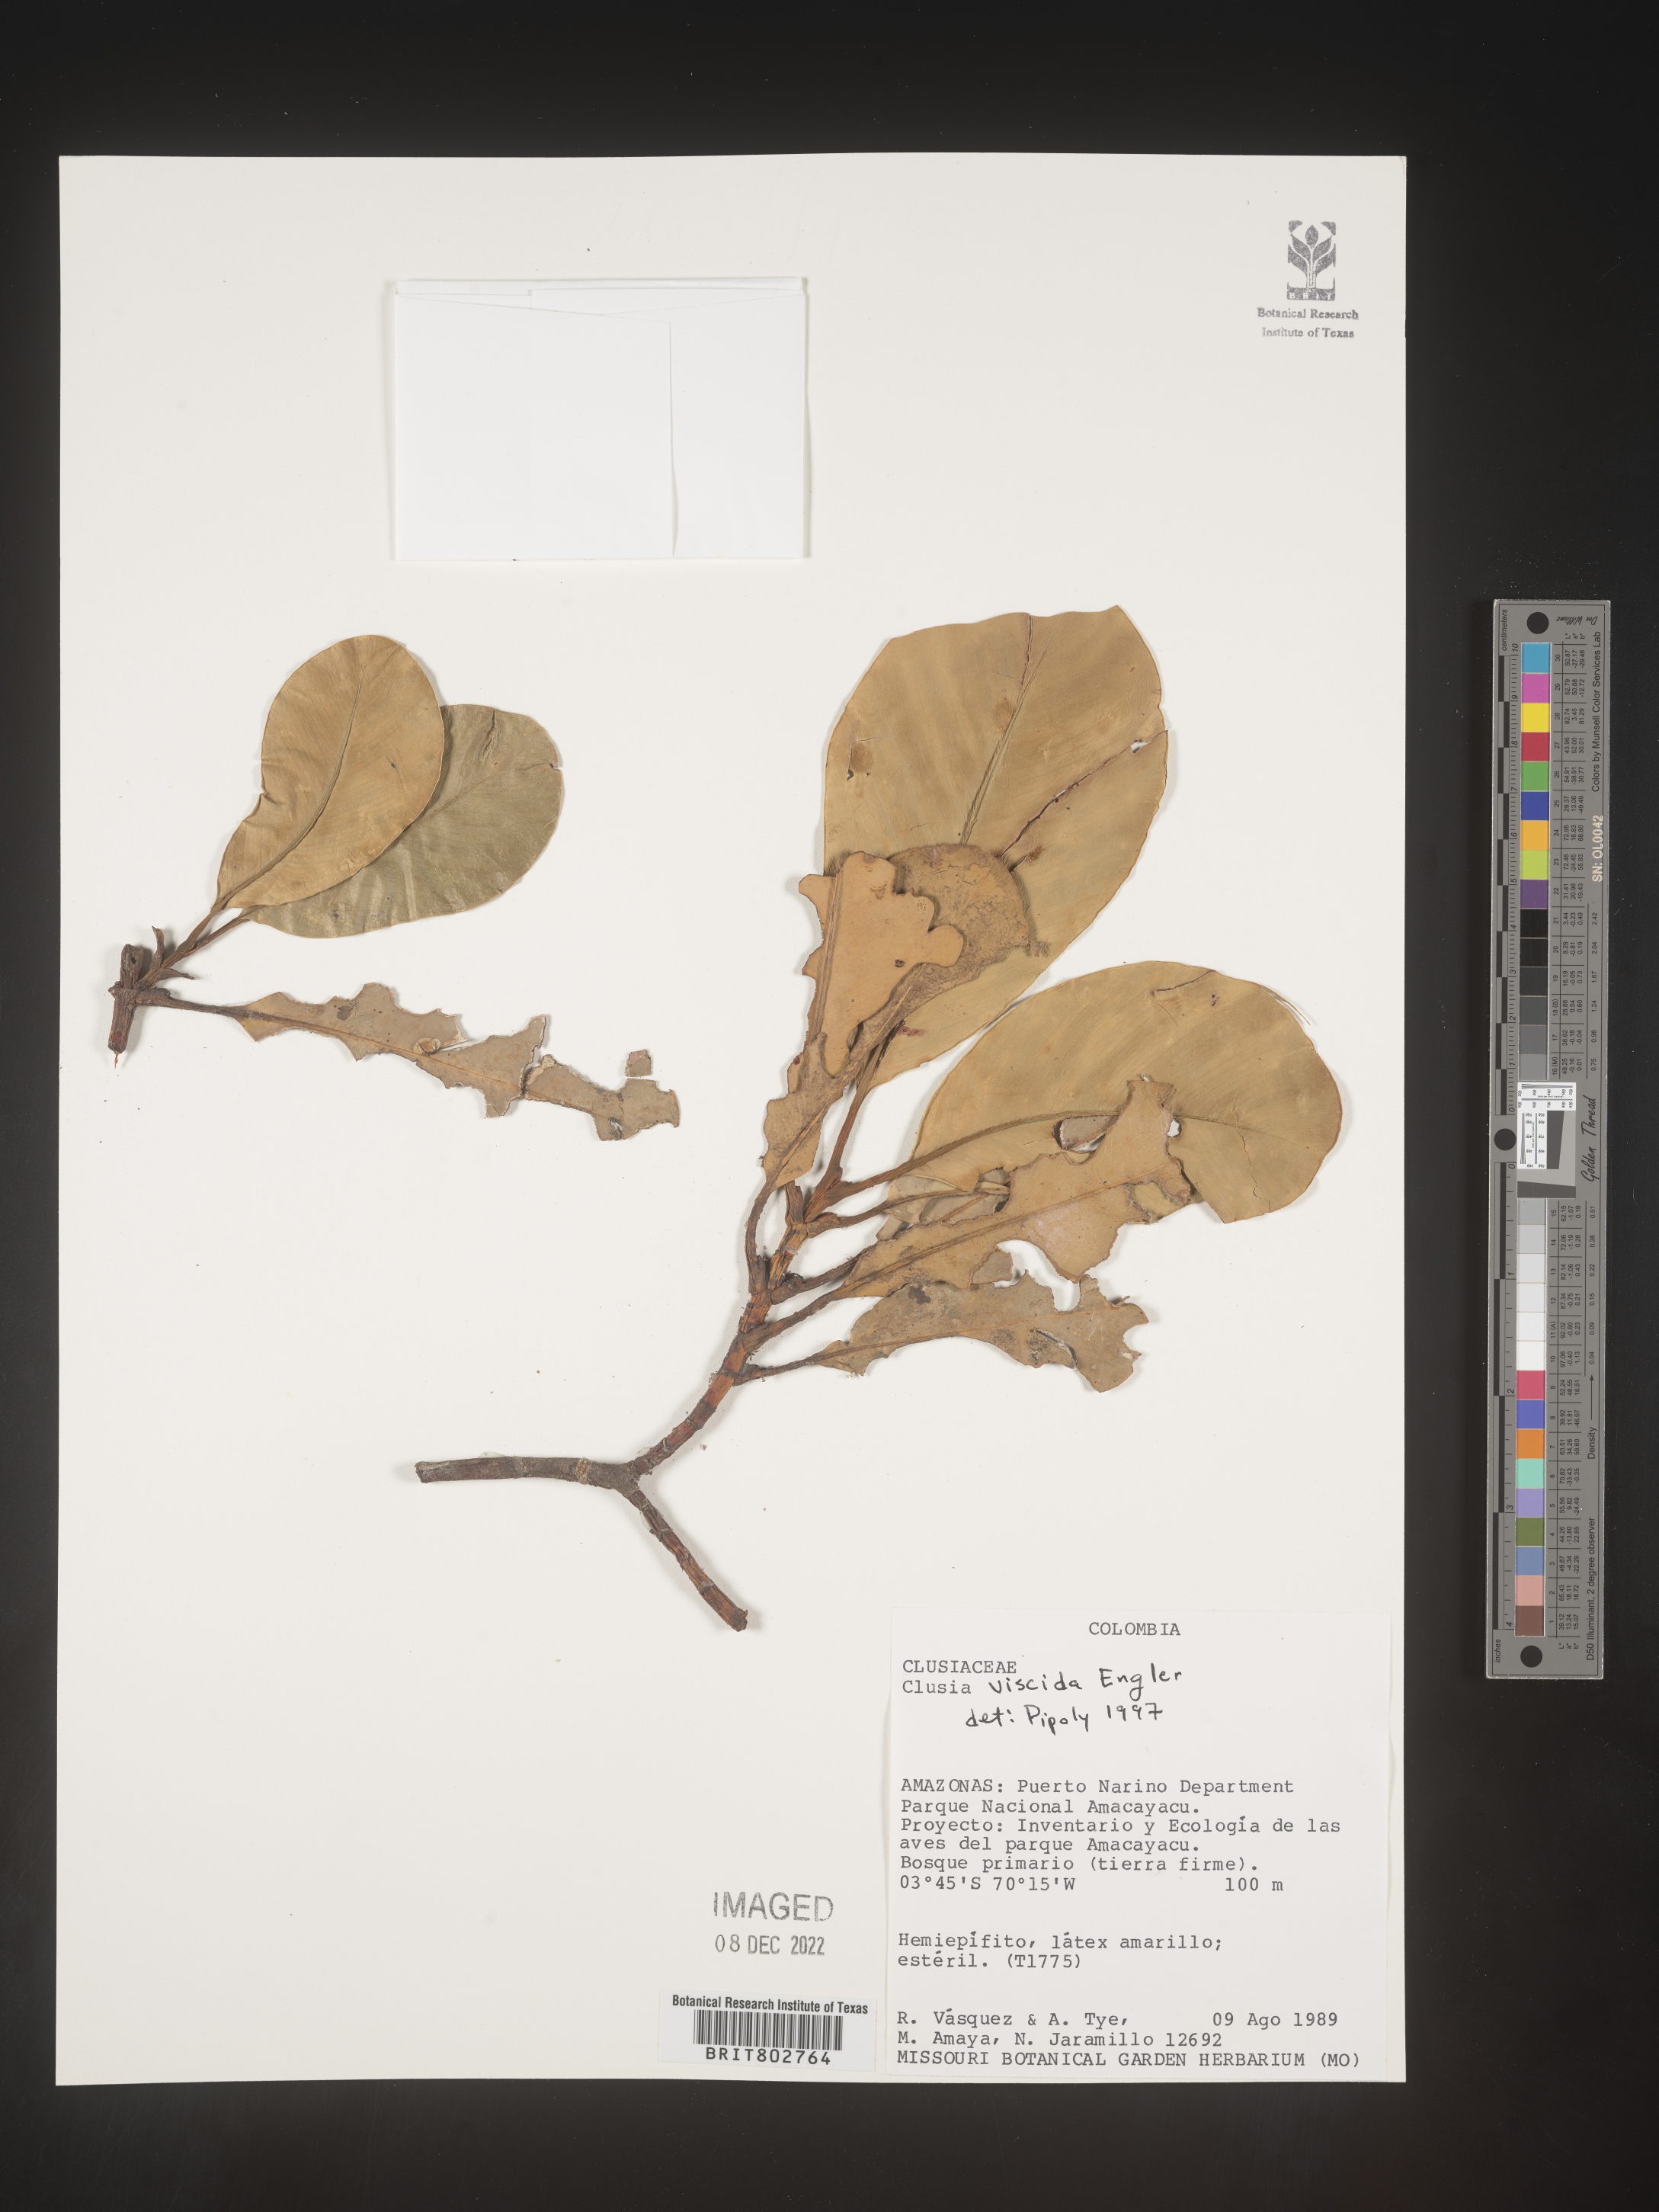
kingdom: Plantae
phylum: Tracheophyta
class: Magnoliopsida
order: Malpighiales
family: Clusiaceae
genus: Clusia
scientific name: Clusia viscida
